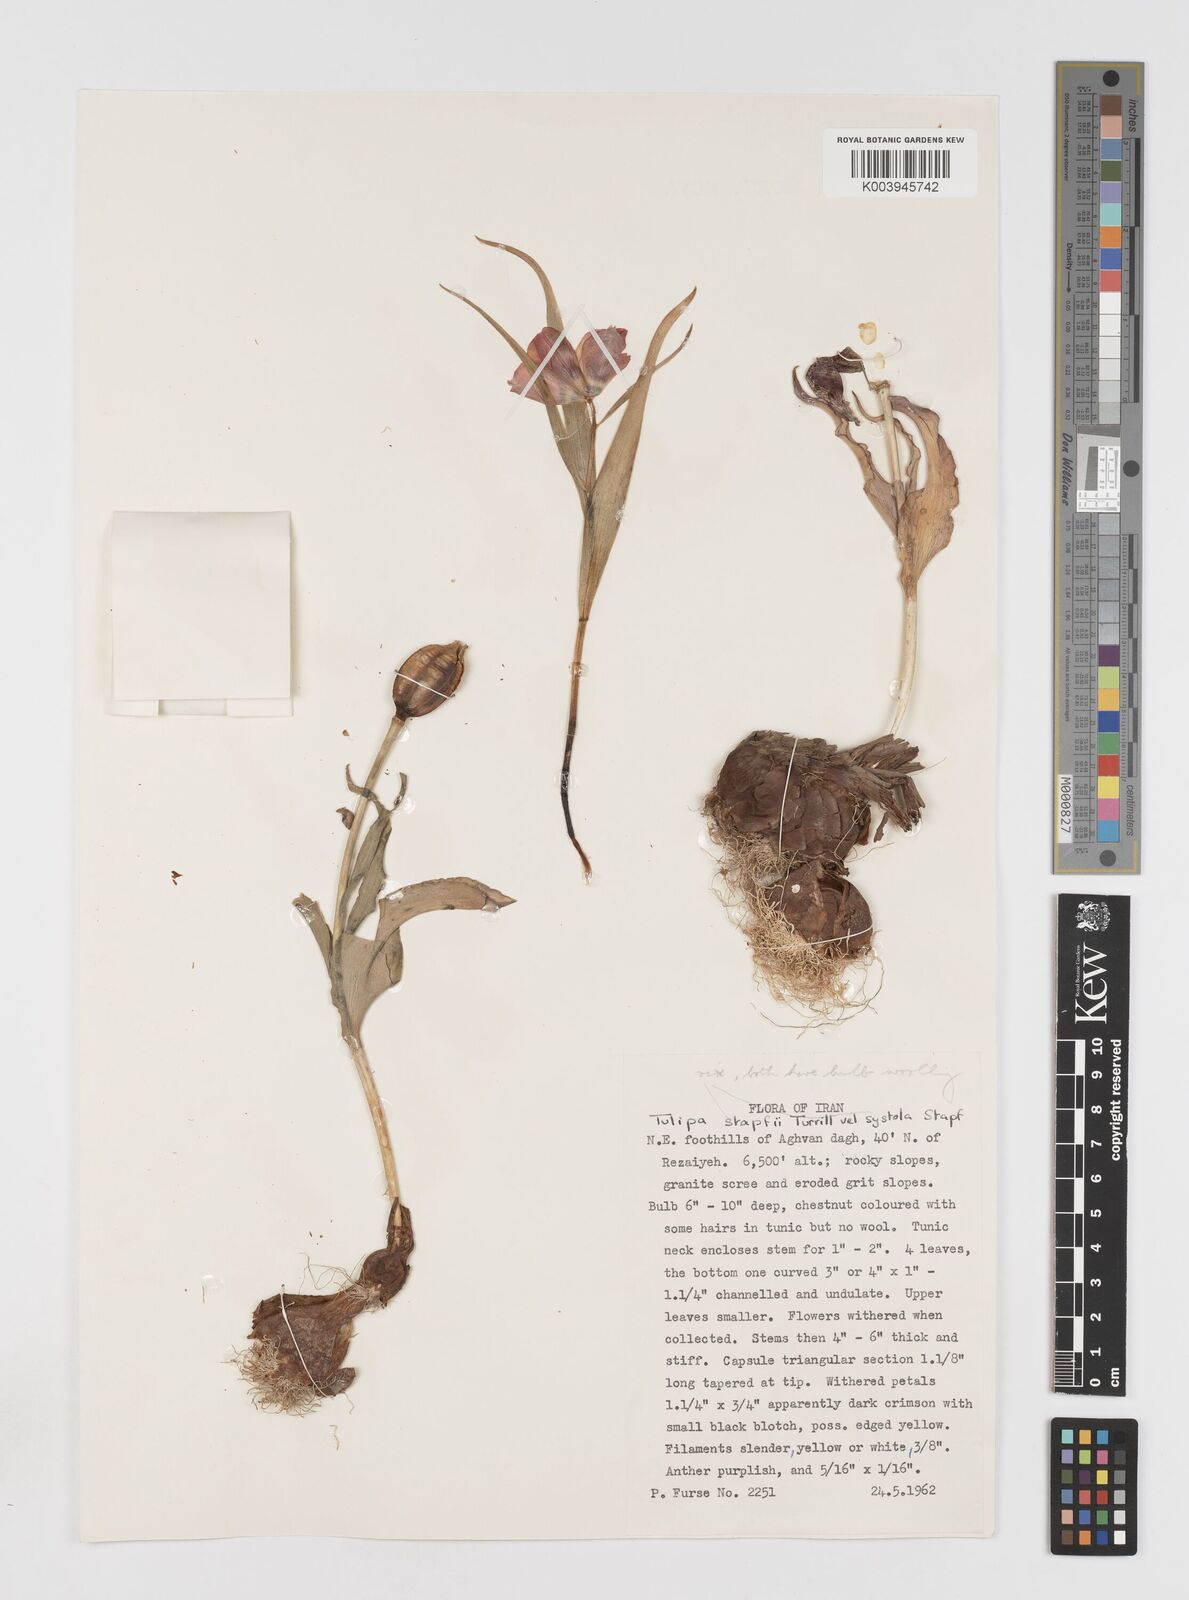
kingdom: Plantae
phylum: Tracheophyta
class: Liliopsida
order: Liliales
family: Liliaceae
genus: Tulipa
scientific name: Tulipa armena
